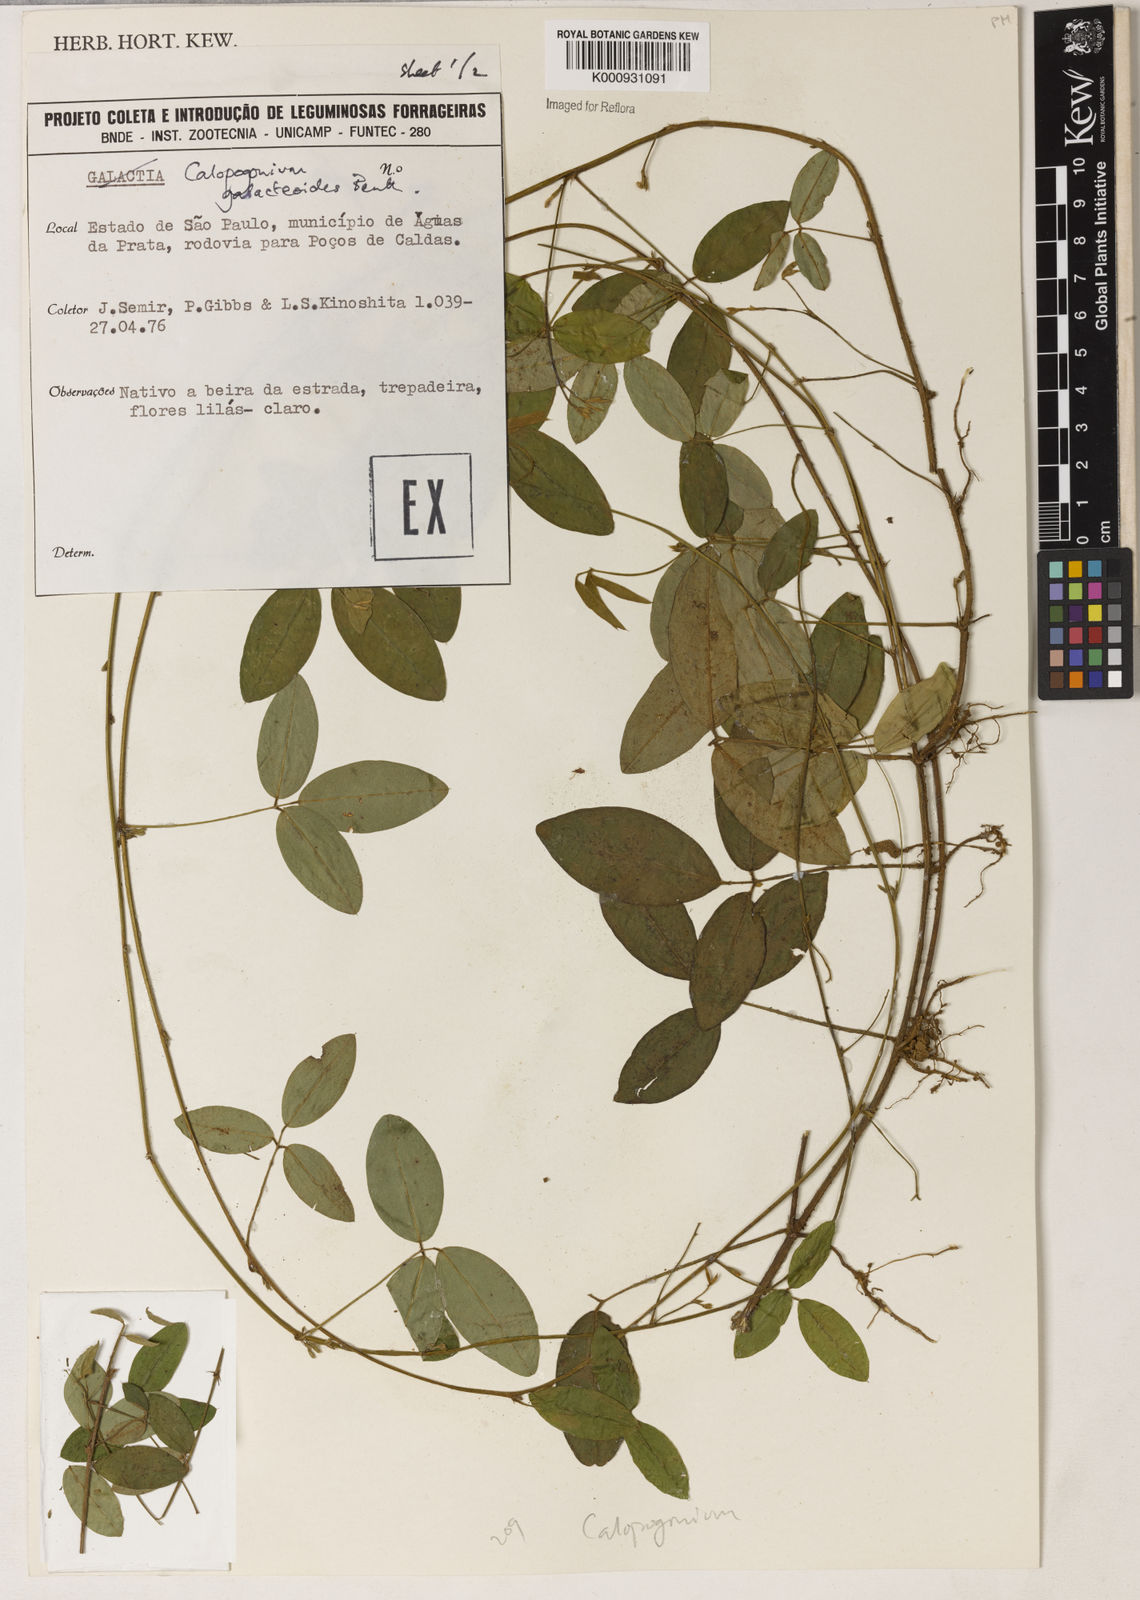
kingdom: Plantae
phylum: Tracheophyta
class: Magnoliopsida
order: Fabales
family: Fabaceae
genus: Calopogonium
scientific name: Calopogonium galactioides
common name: Legume
